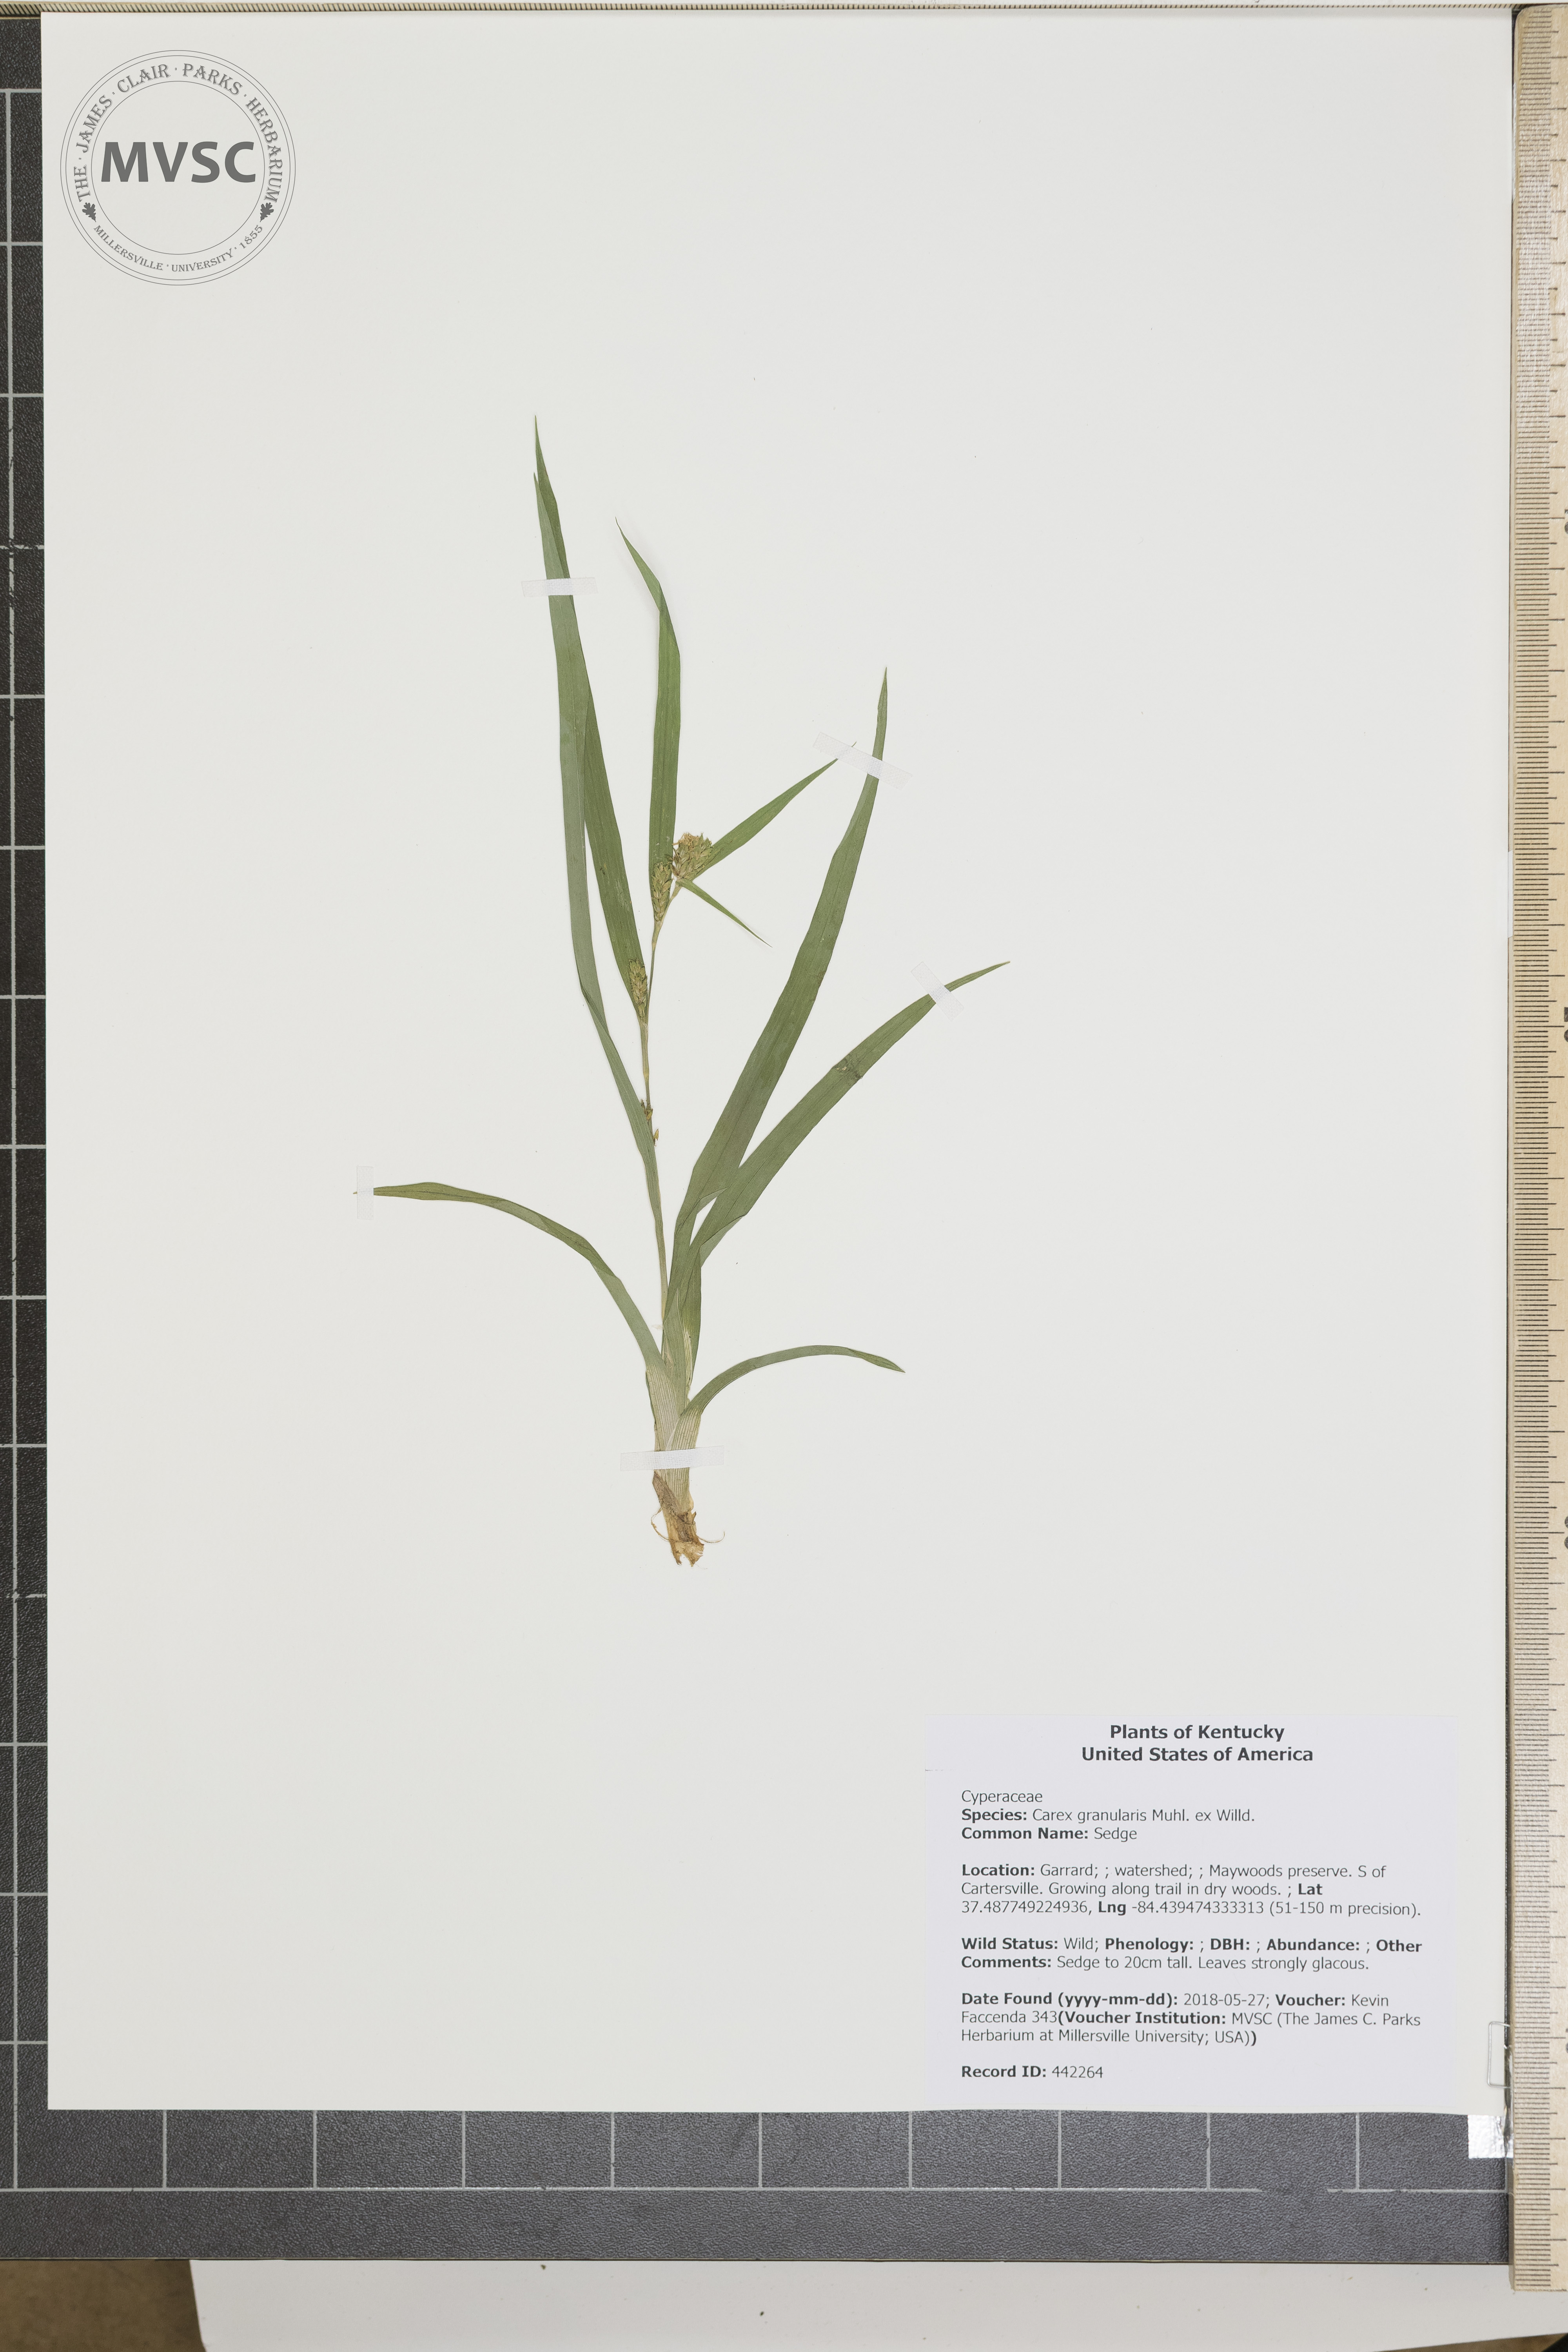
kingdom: Plantae
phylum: Tracheophyta
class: Liliopsida
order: Poales
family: Cyperaceae
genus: Carex
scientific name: Carex granularis
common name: Sedge
